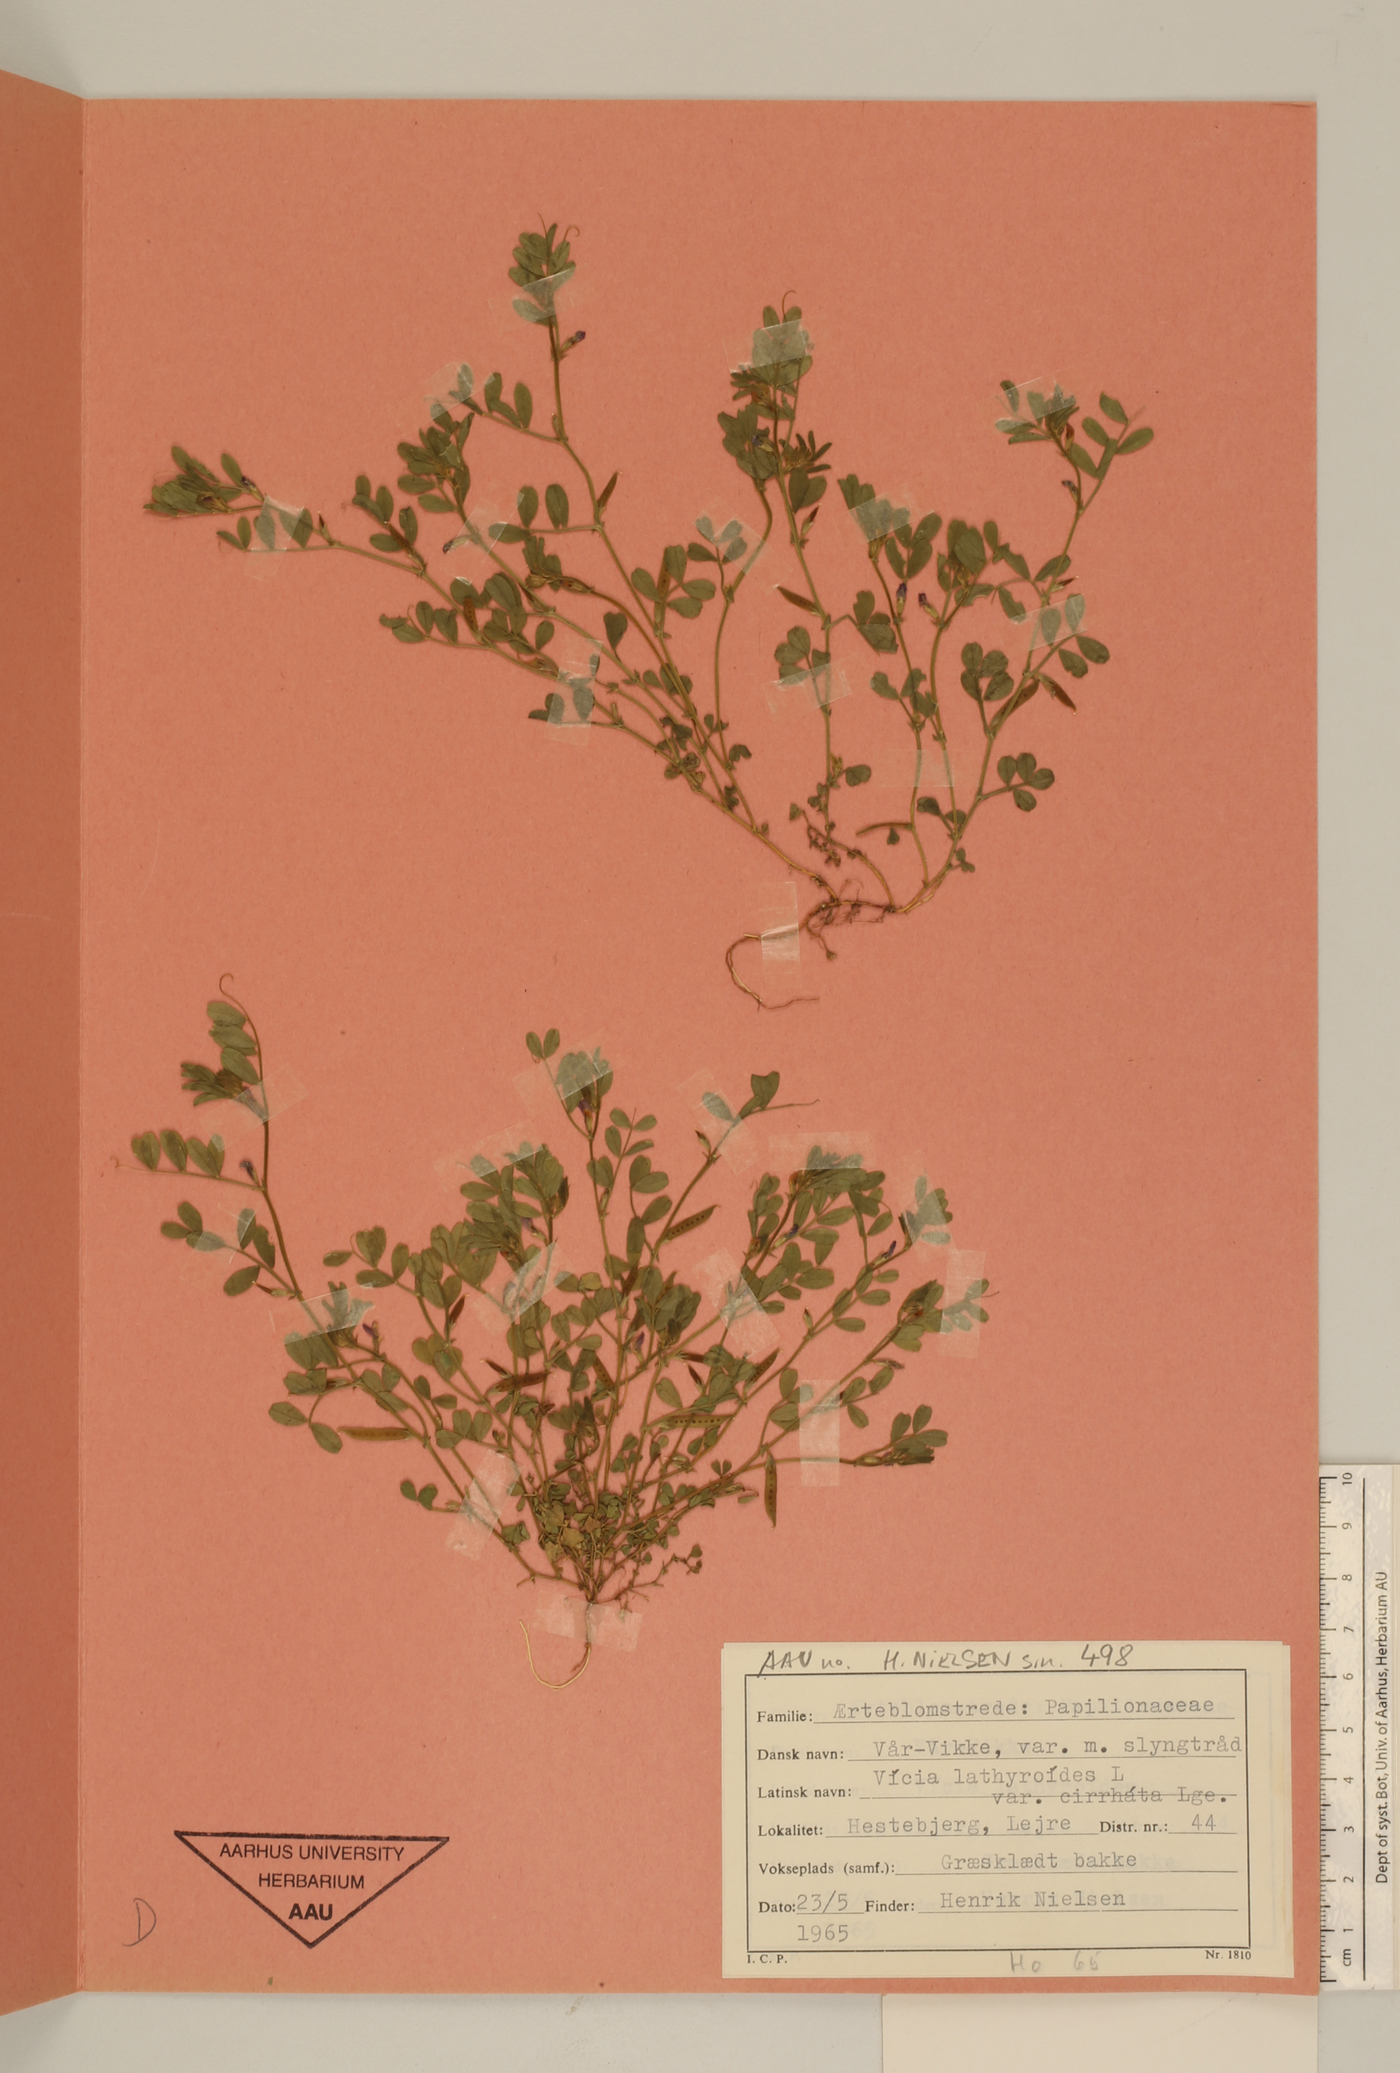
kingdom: Plantae
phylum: Tracheophyta
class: Magnoliopsida
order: Fabales
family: Fabaceae
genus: Vicia
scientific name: Vicia lathyroides
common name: Spring vetch
